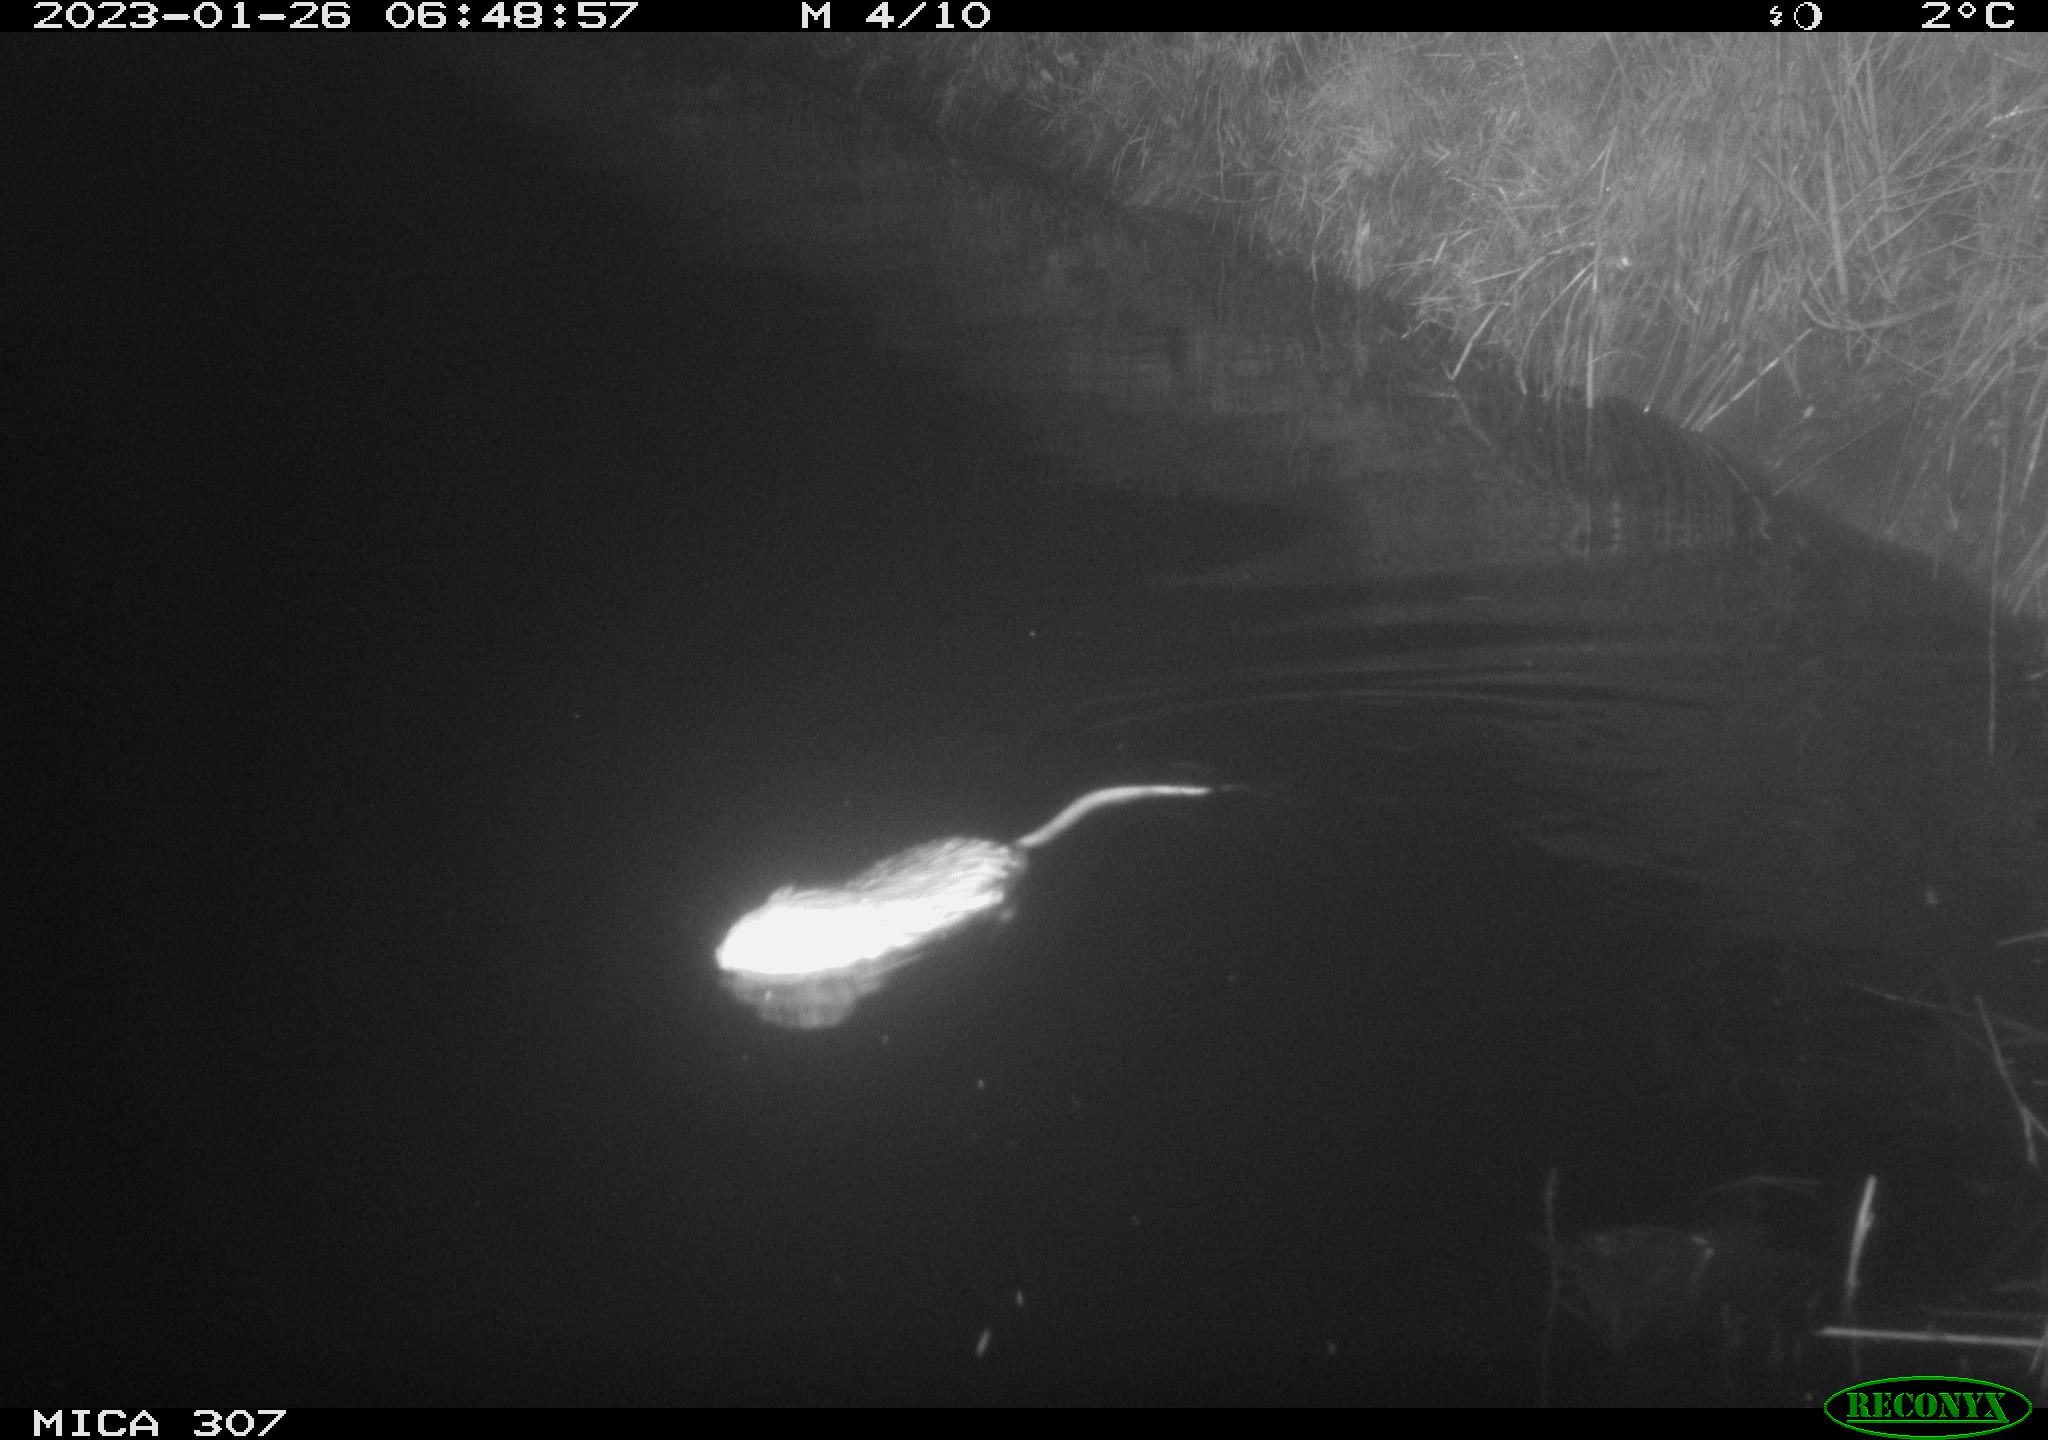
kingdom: Animalia
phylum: Chordata
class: Mammalia
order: Rodentia
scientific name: Rodentia
